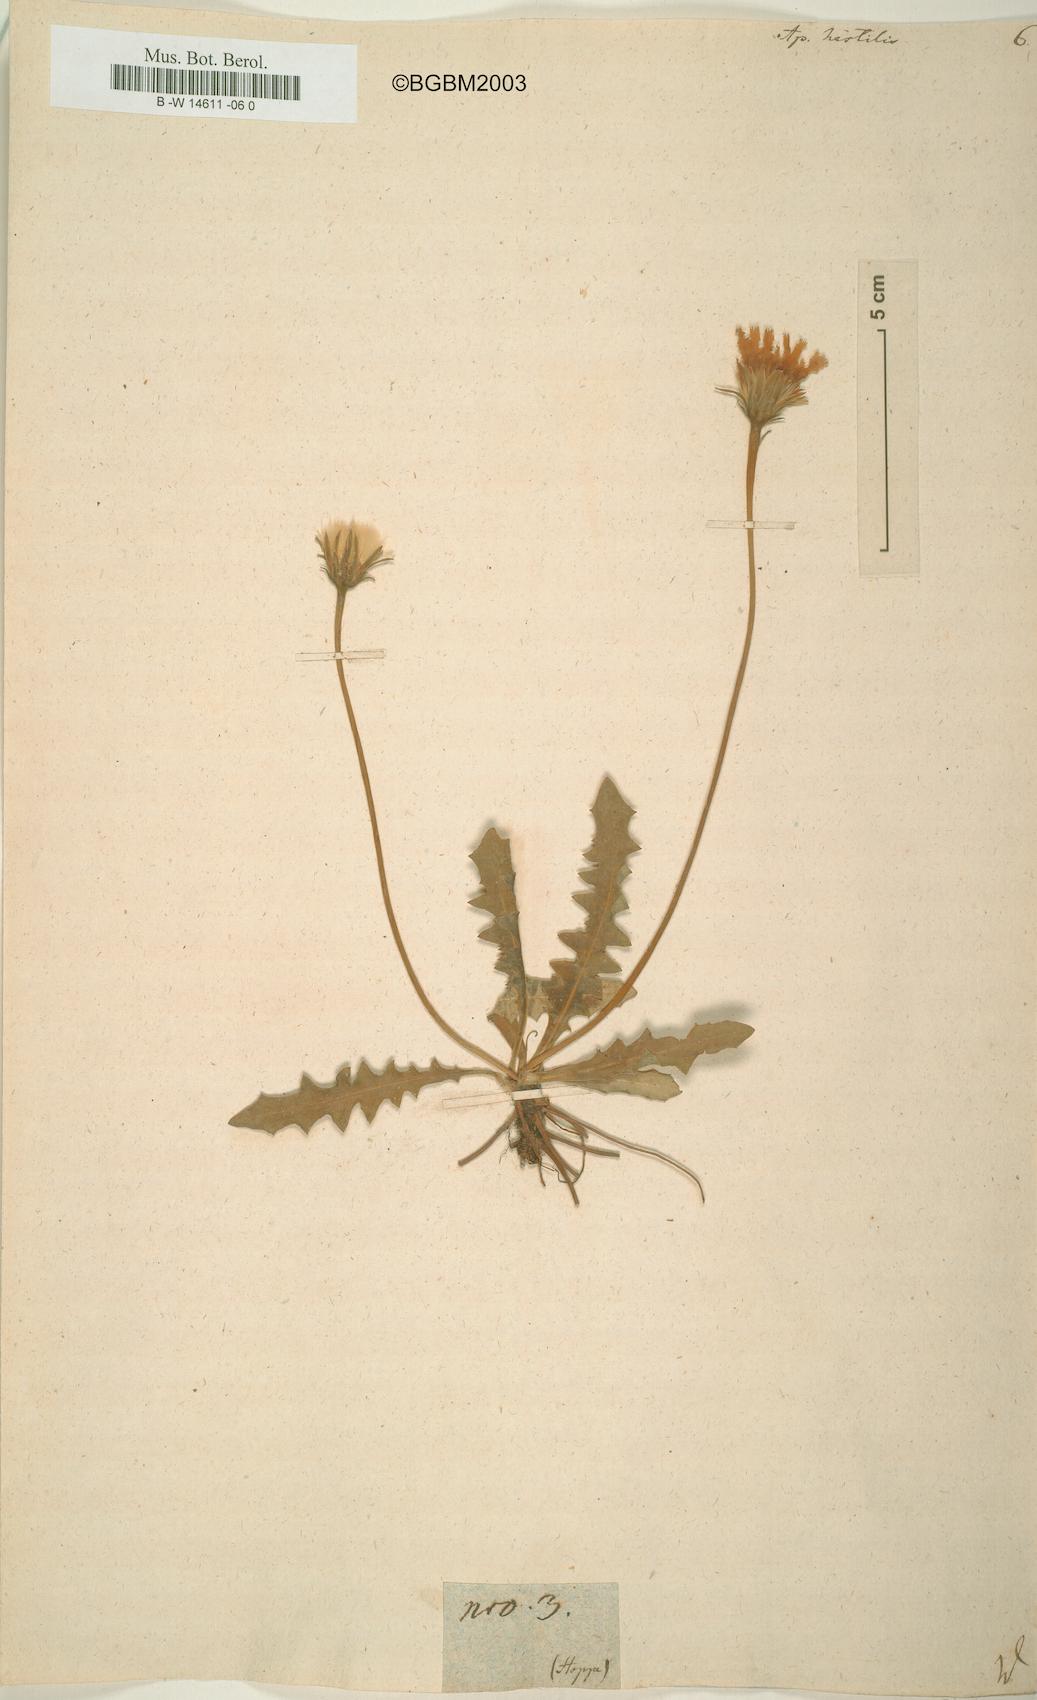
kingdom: Plantae
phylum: Tracheophyta
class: Magnoliopsida
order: Asterales
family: Asteraceae
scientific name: Asteraceae
